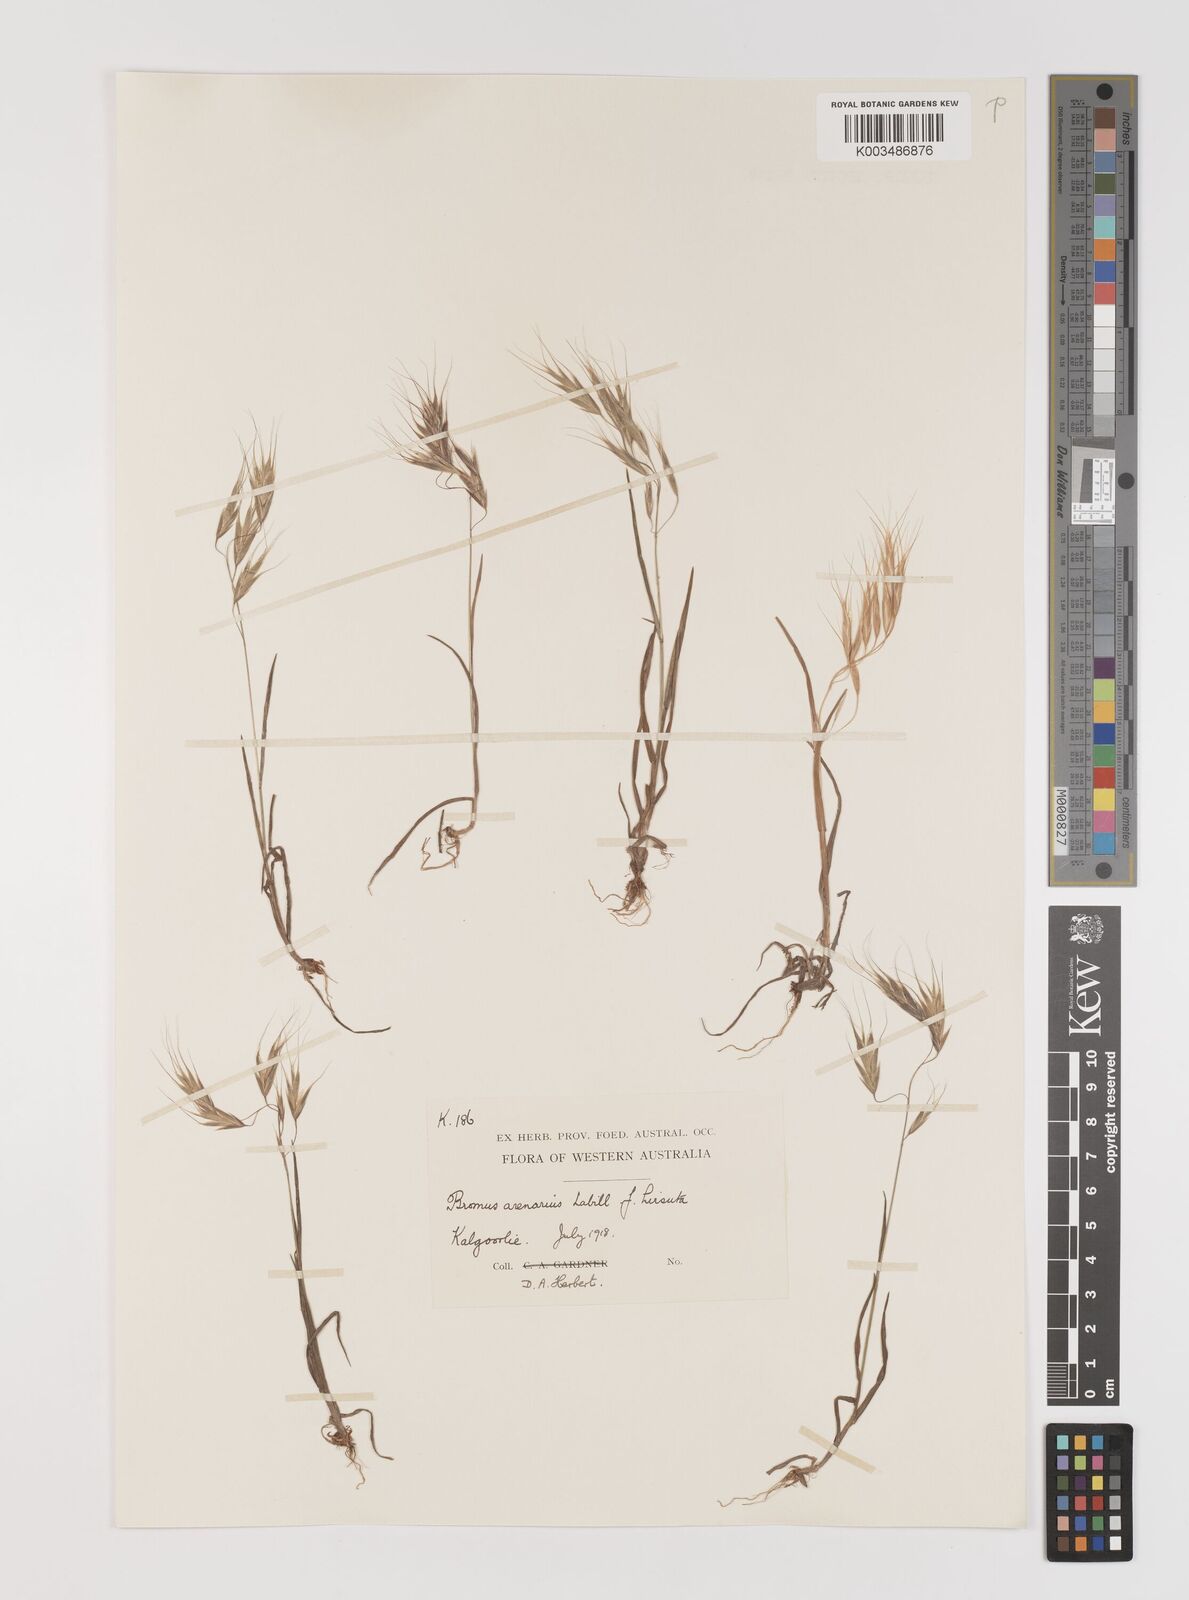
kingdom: Plantae
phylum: Tracheophyta
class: Liliopsida
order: Poales
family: Poaceae
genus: Bromus
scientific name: Bromus arenarius
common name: Australian brome
